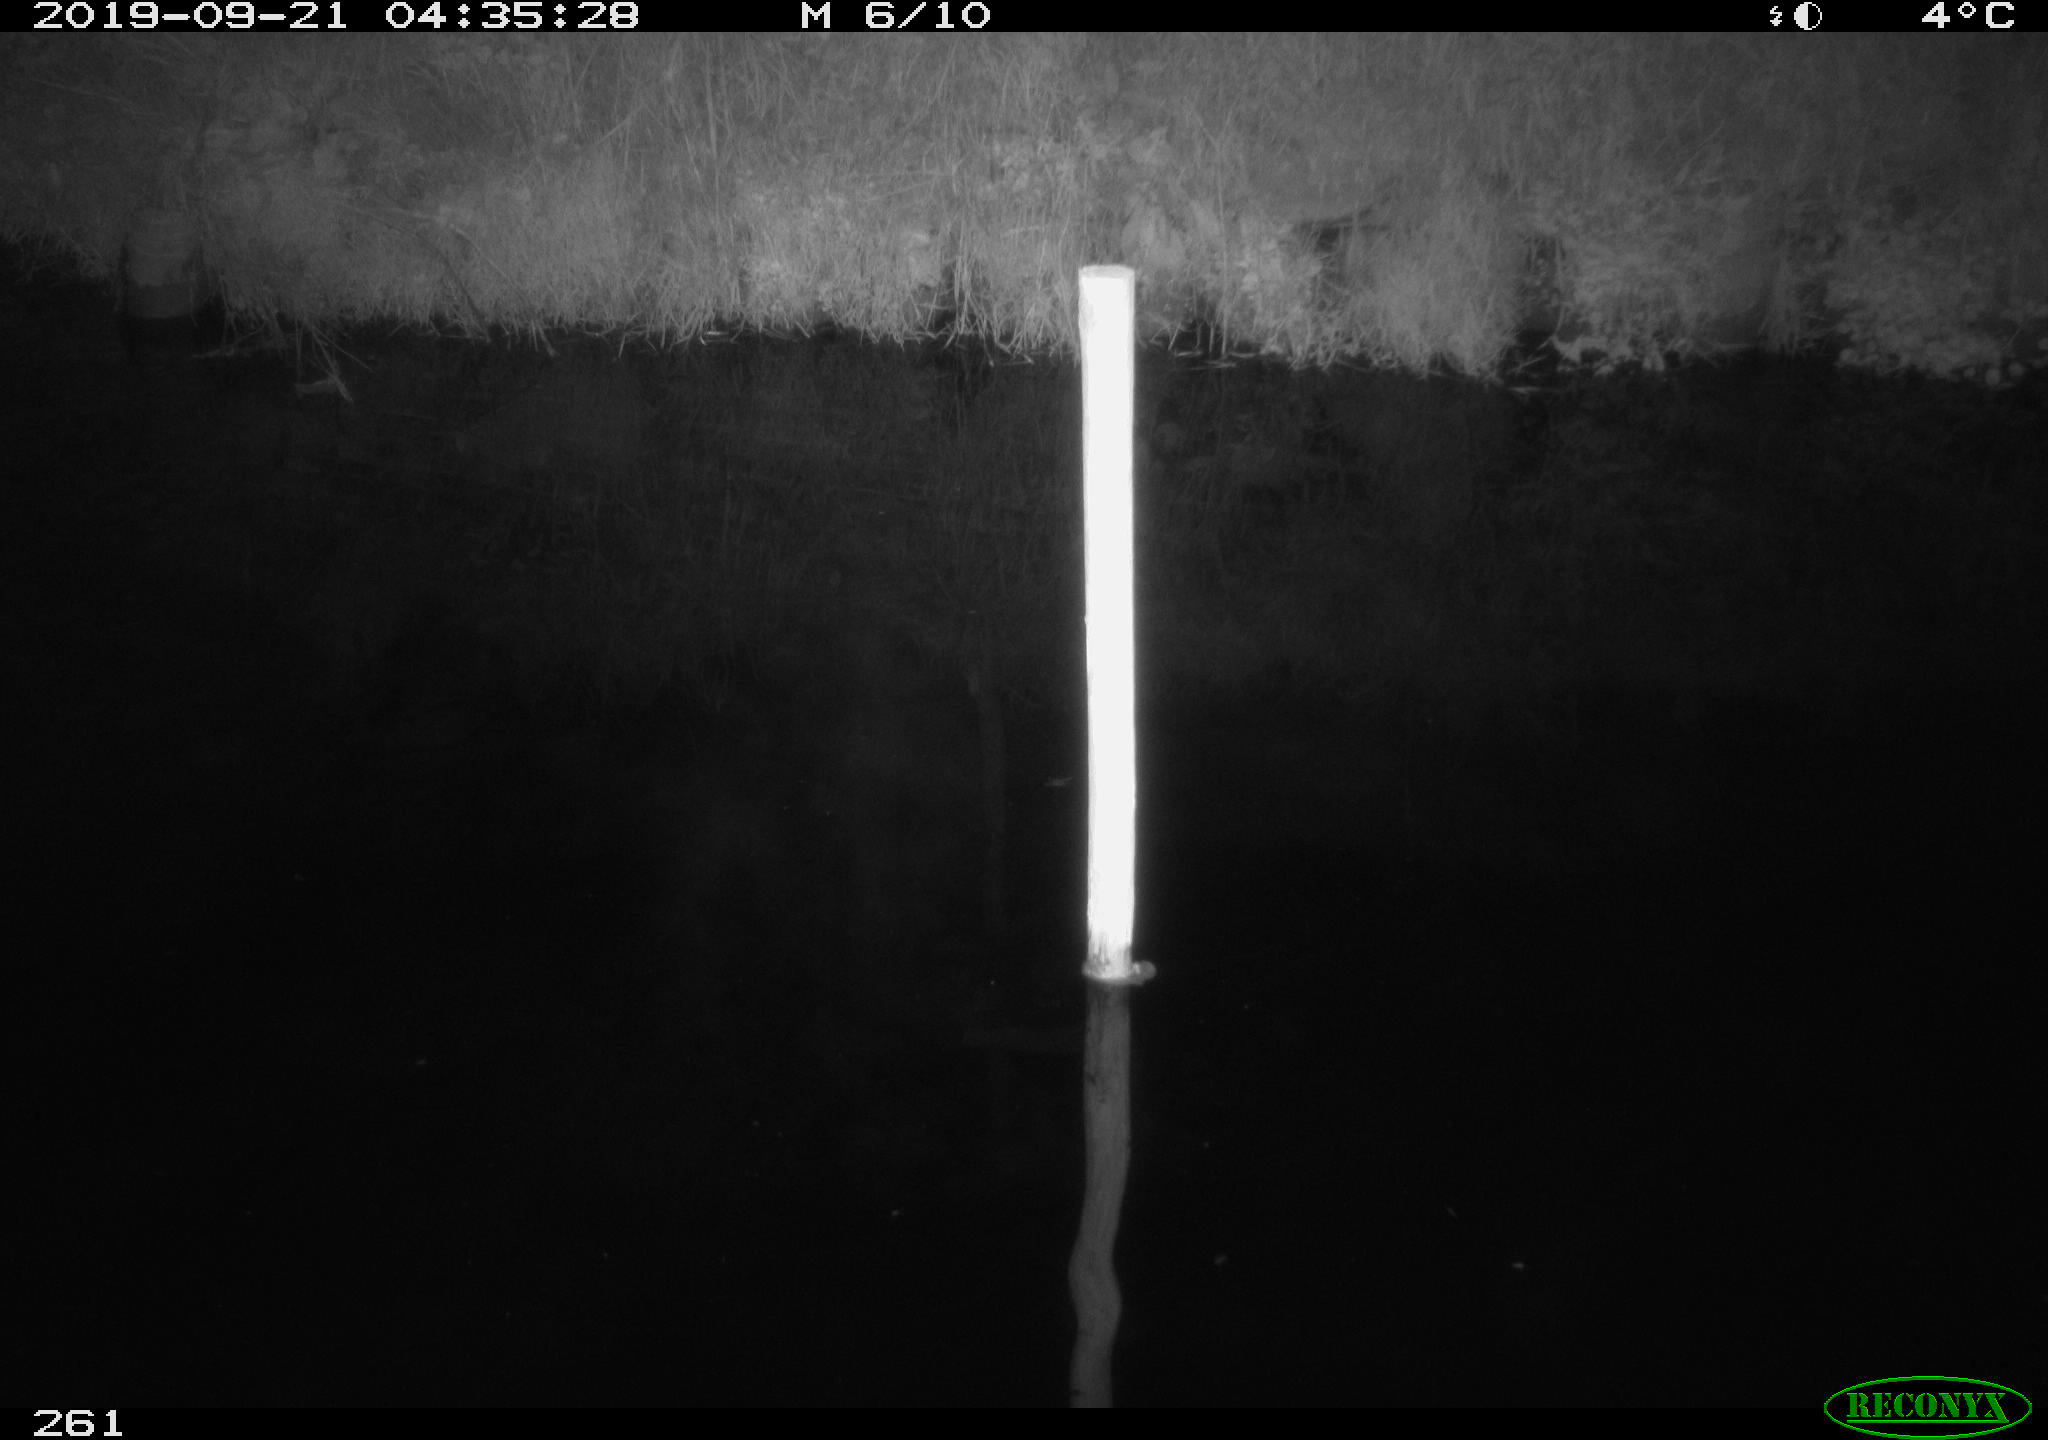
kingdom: Animalia
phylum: Chordata
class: Aves
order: Anseriformes
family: Anatidae
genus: Anas
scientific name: Anas platyrhynchos
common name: Mallard
